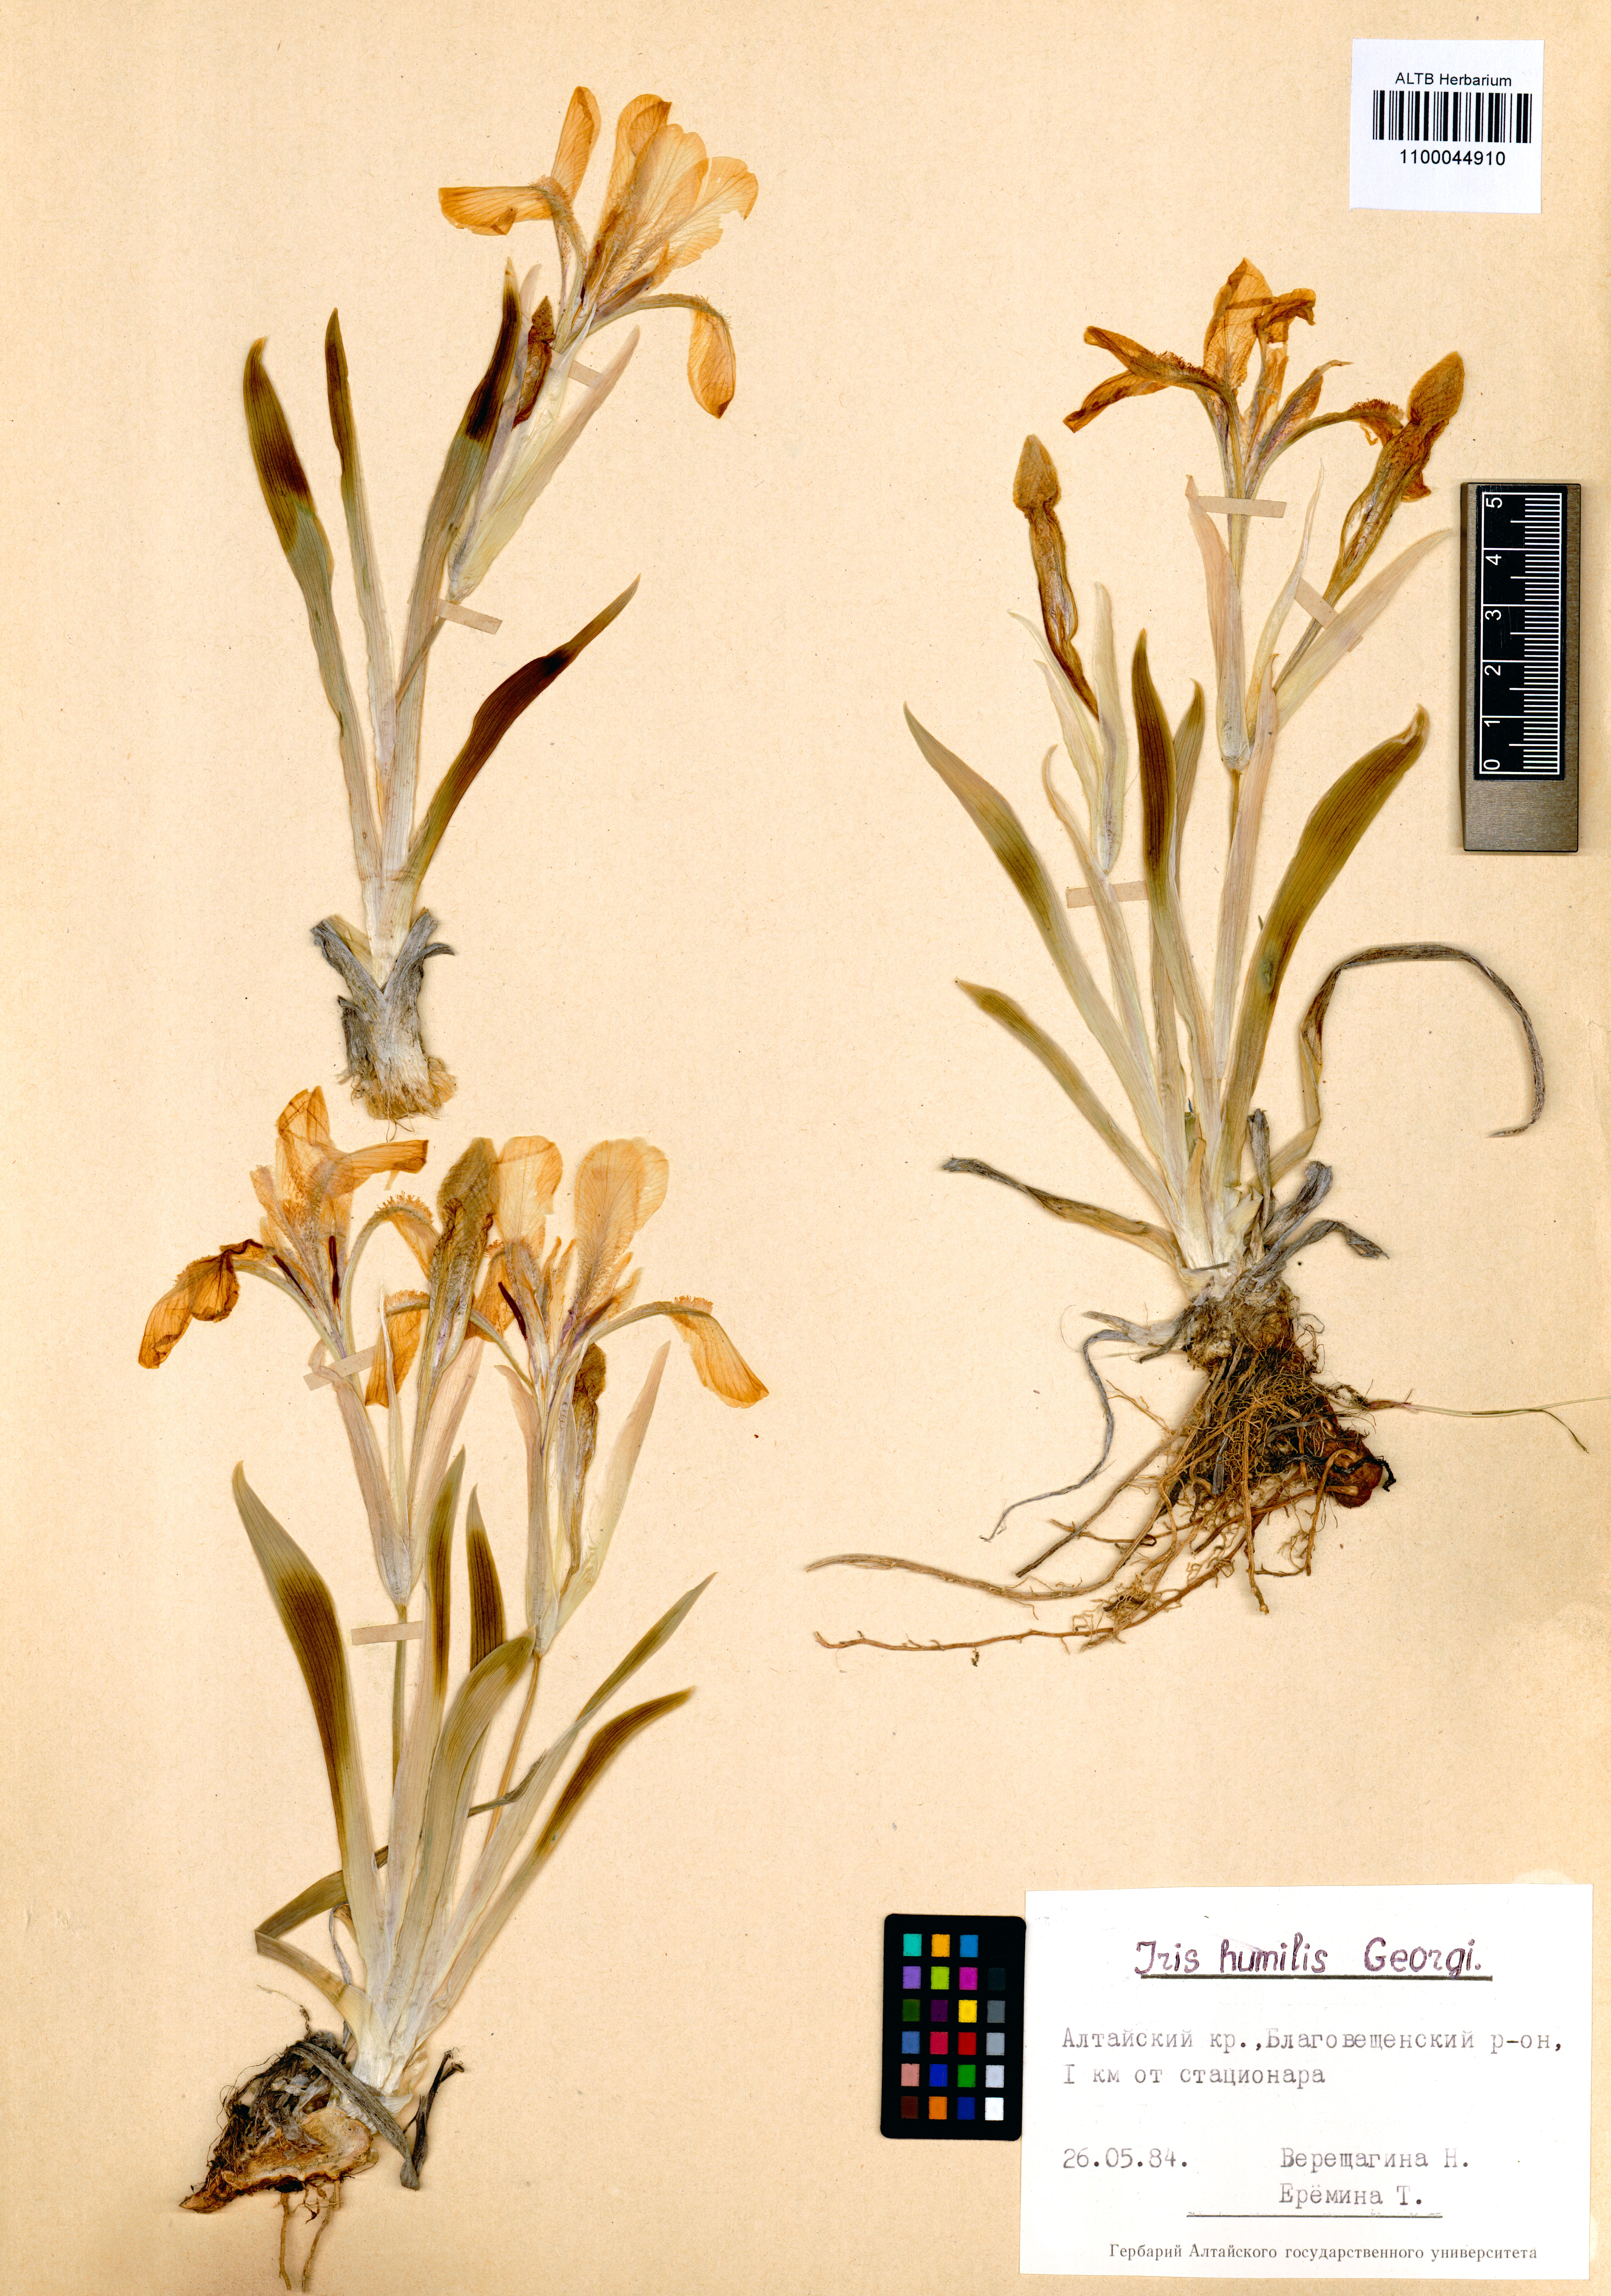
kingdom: Plantae
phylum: Tracheophyta
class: Liliopsida
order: Asparagales
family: Iridaceae
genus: Iris
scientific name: Iris humilis
